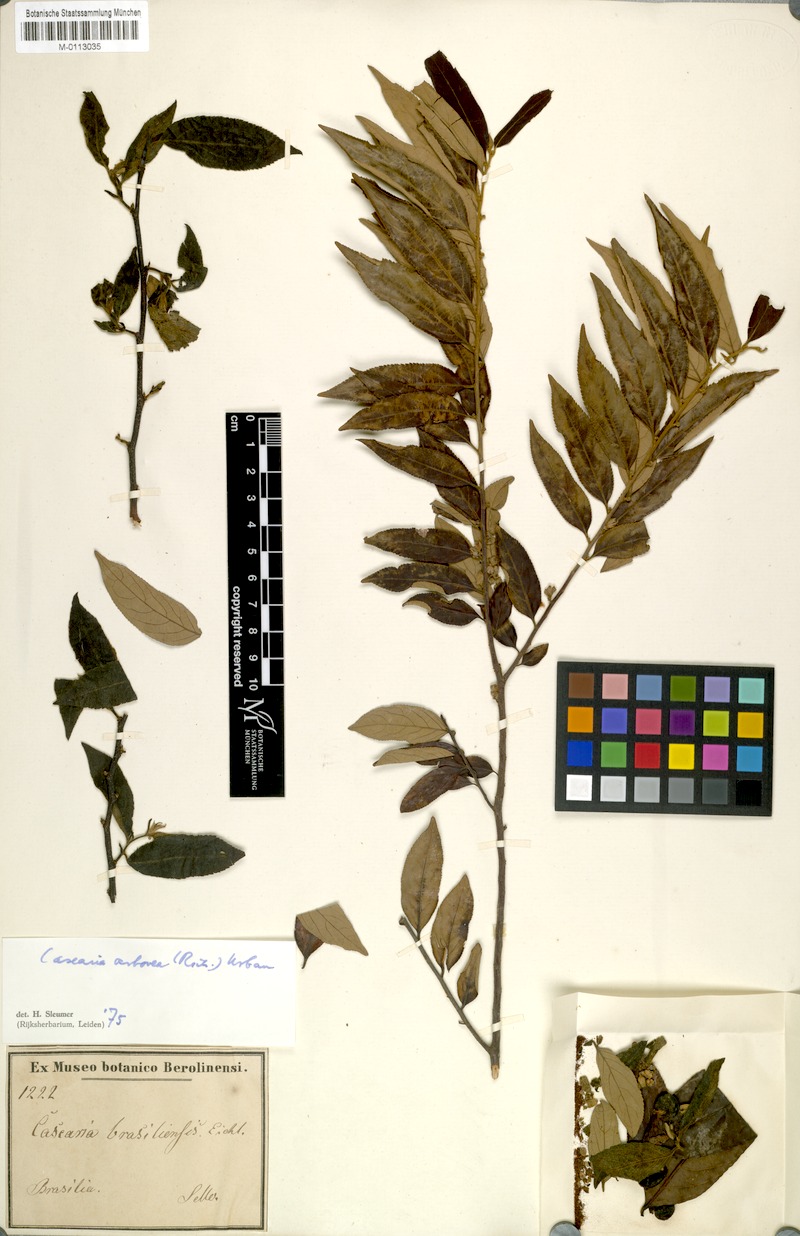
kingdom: Plantae
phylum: Tracheophyta
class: Magnoliopsida
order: Malpighiales
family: Salicaceae
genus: Casearia
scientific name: Casearia arborea
